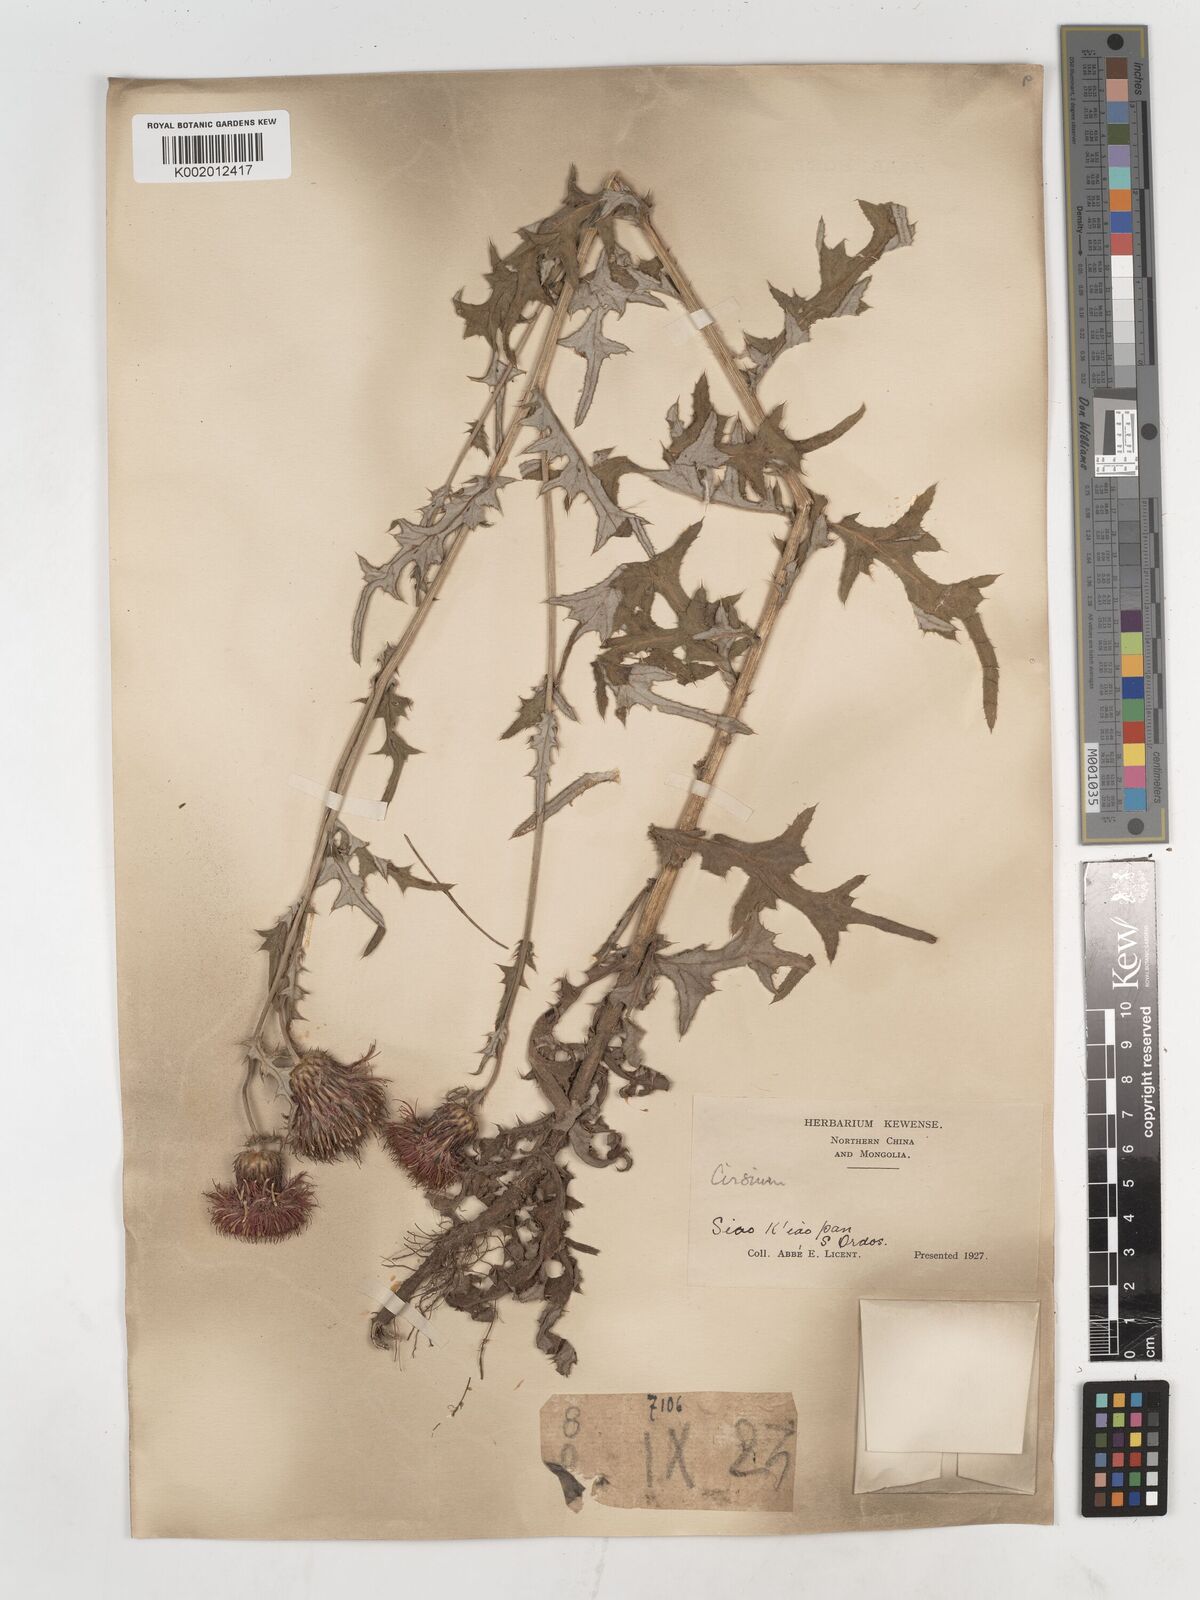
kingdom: Plantae
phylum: Tracheophyta
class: Magnoliopsida
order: Asterales
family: Asteraceae
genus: Cirsium
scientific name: Cirsium
